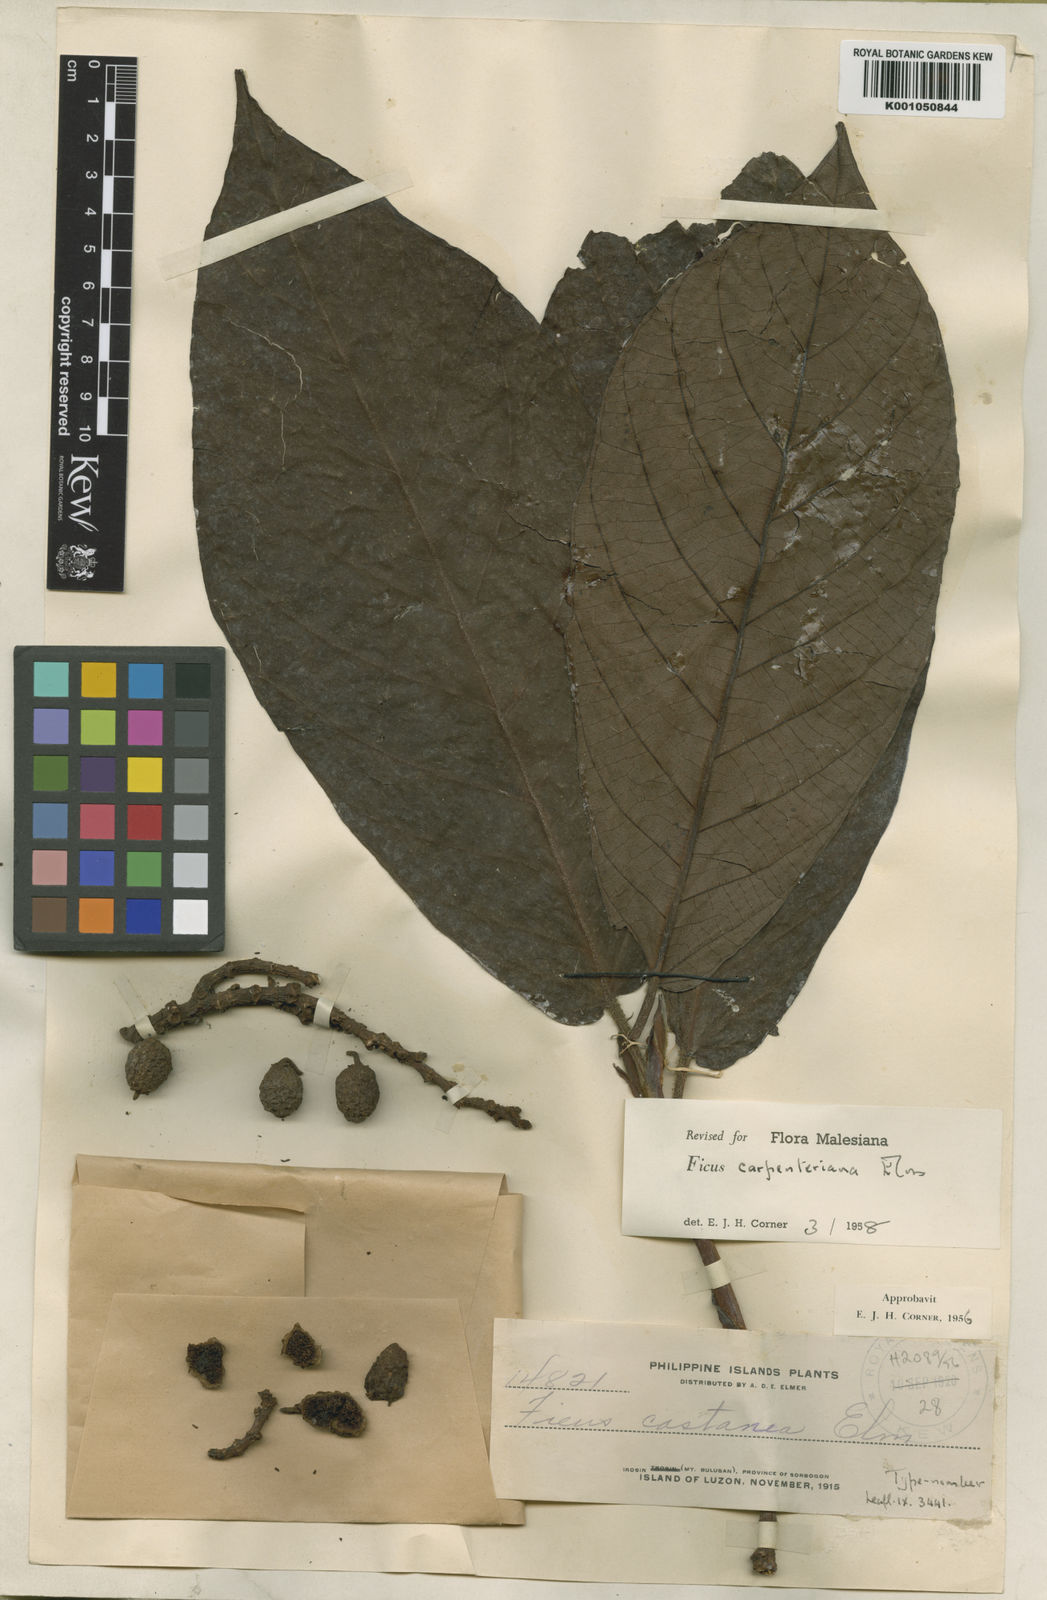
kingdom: Plantae
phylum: Tracheophyta
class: Magnoliopsida
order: Rosales
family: Moraceae
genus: Ficus
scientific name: Ficus carpenteriana
